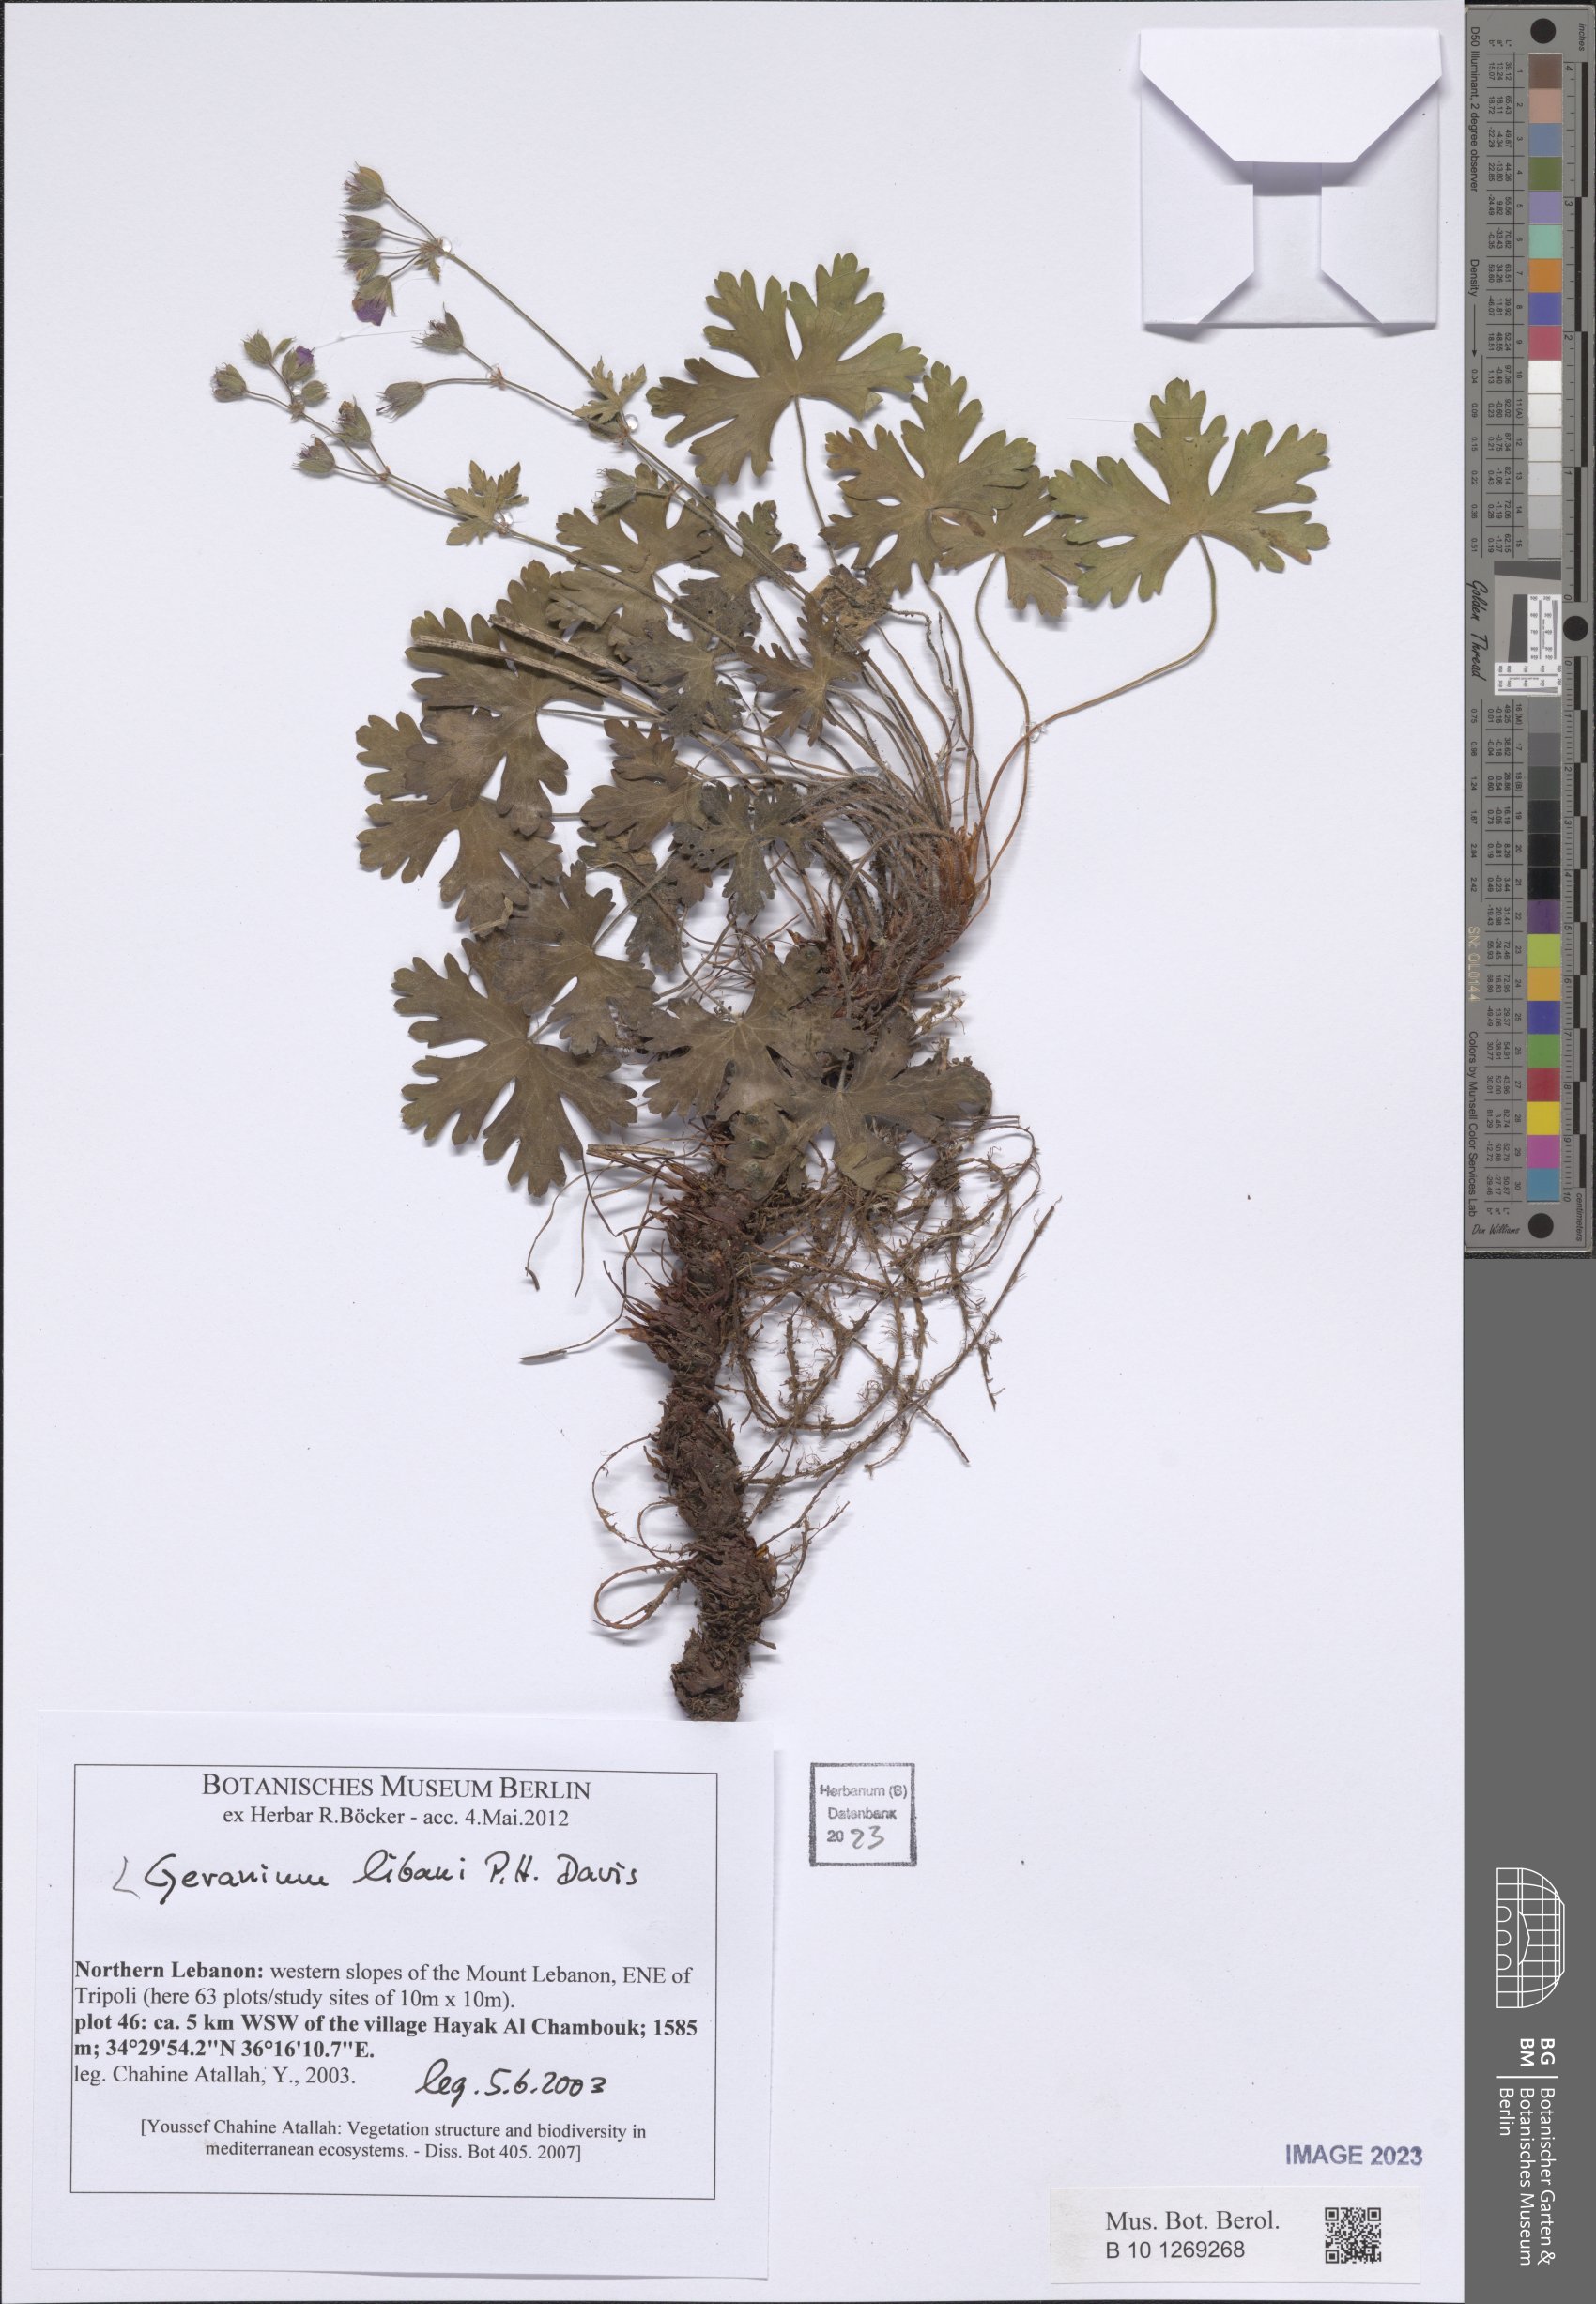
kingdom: Plantae
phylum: Tracheophyta
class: Magnoliopsida
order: Geraniales
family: Geraniaceae
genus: Geranium
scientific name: Geranium libani
